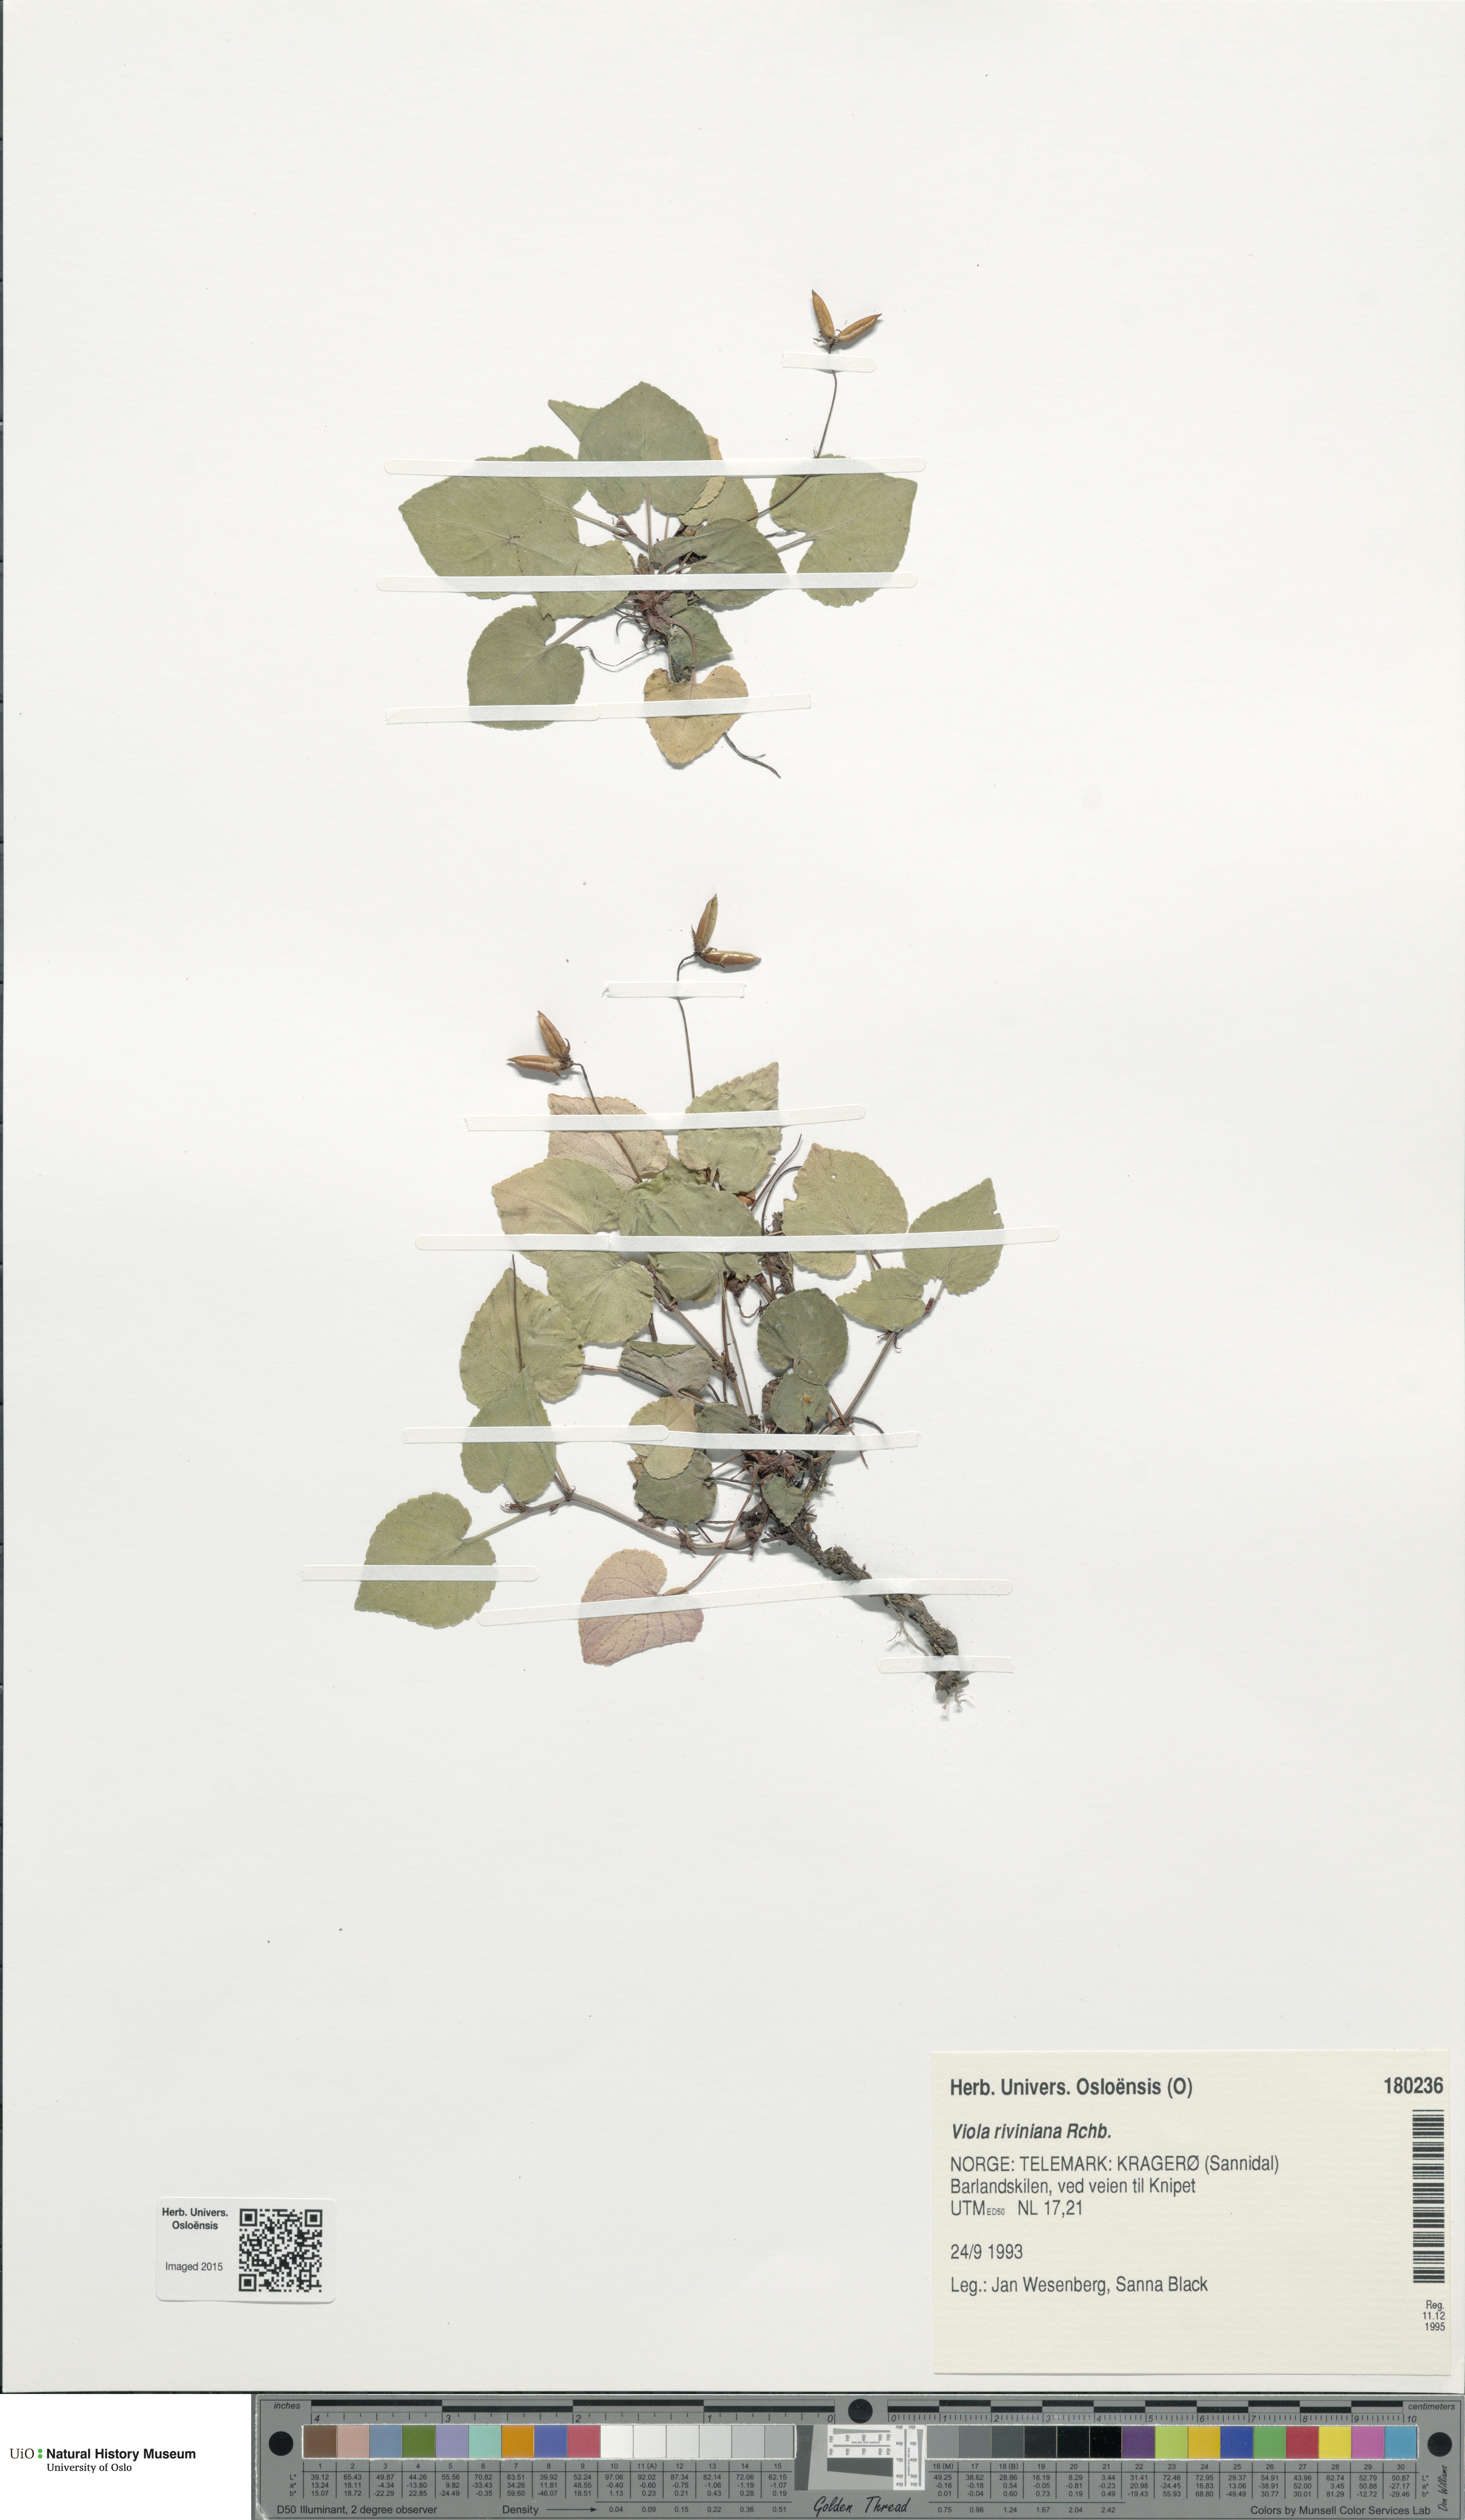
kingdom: Plantae
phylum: Tracheophyta
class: Magnoliopsida
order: Malpighiales
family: Violaceae
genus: Viola
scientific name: Viola riviniana
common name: Common dog-violet
